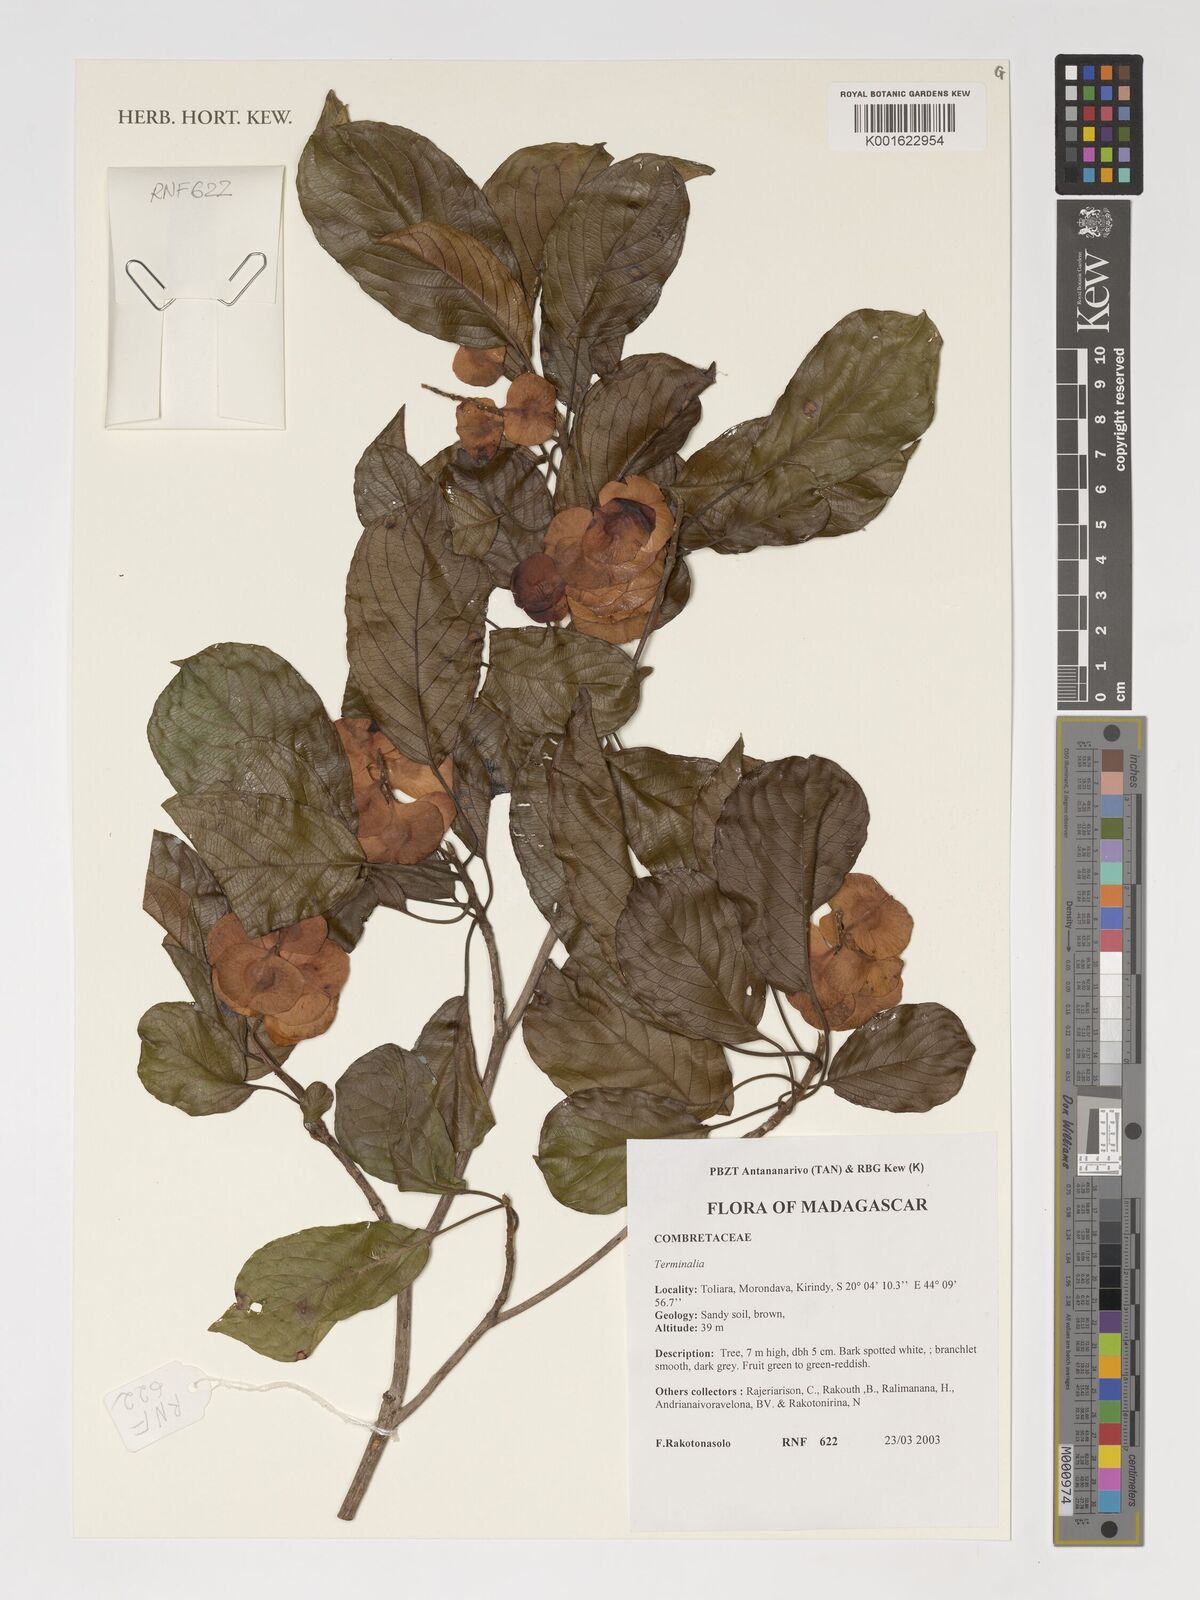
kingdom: Plantae
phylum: Tracheophyta
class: Magnoliopsida
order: Myrtales
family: Combretaceae
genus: Terminalia
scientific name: Terminalia
